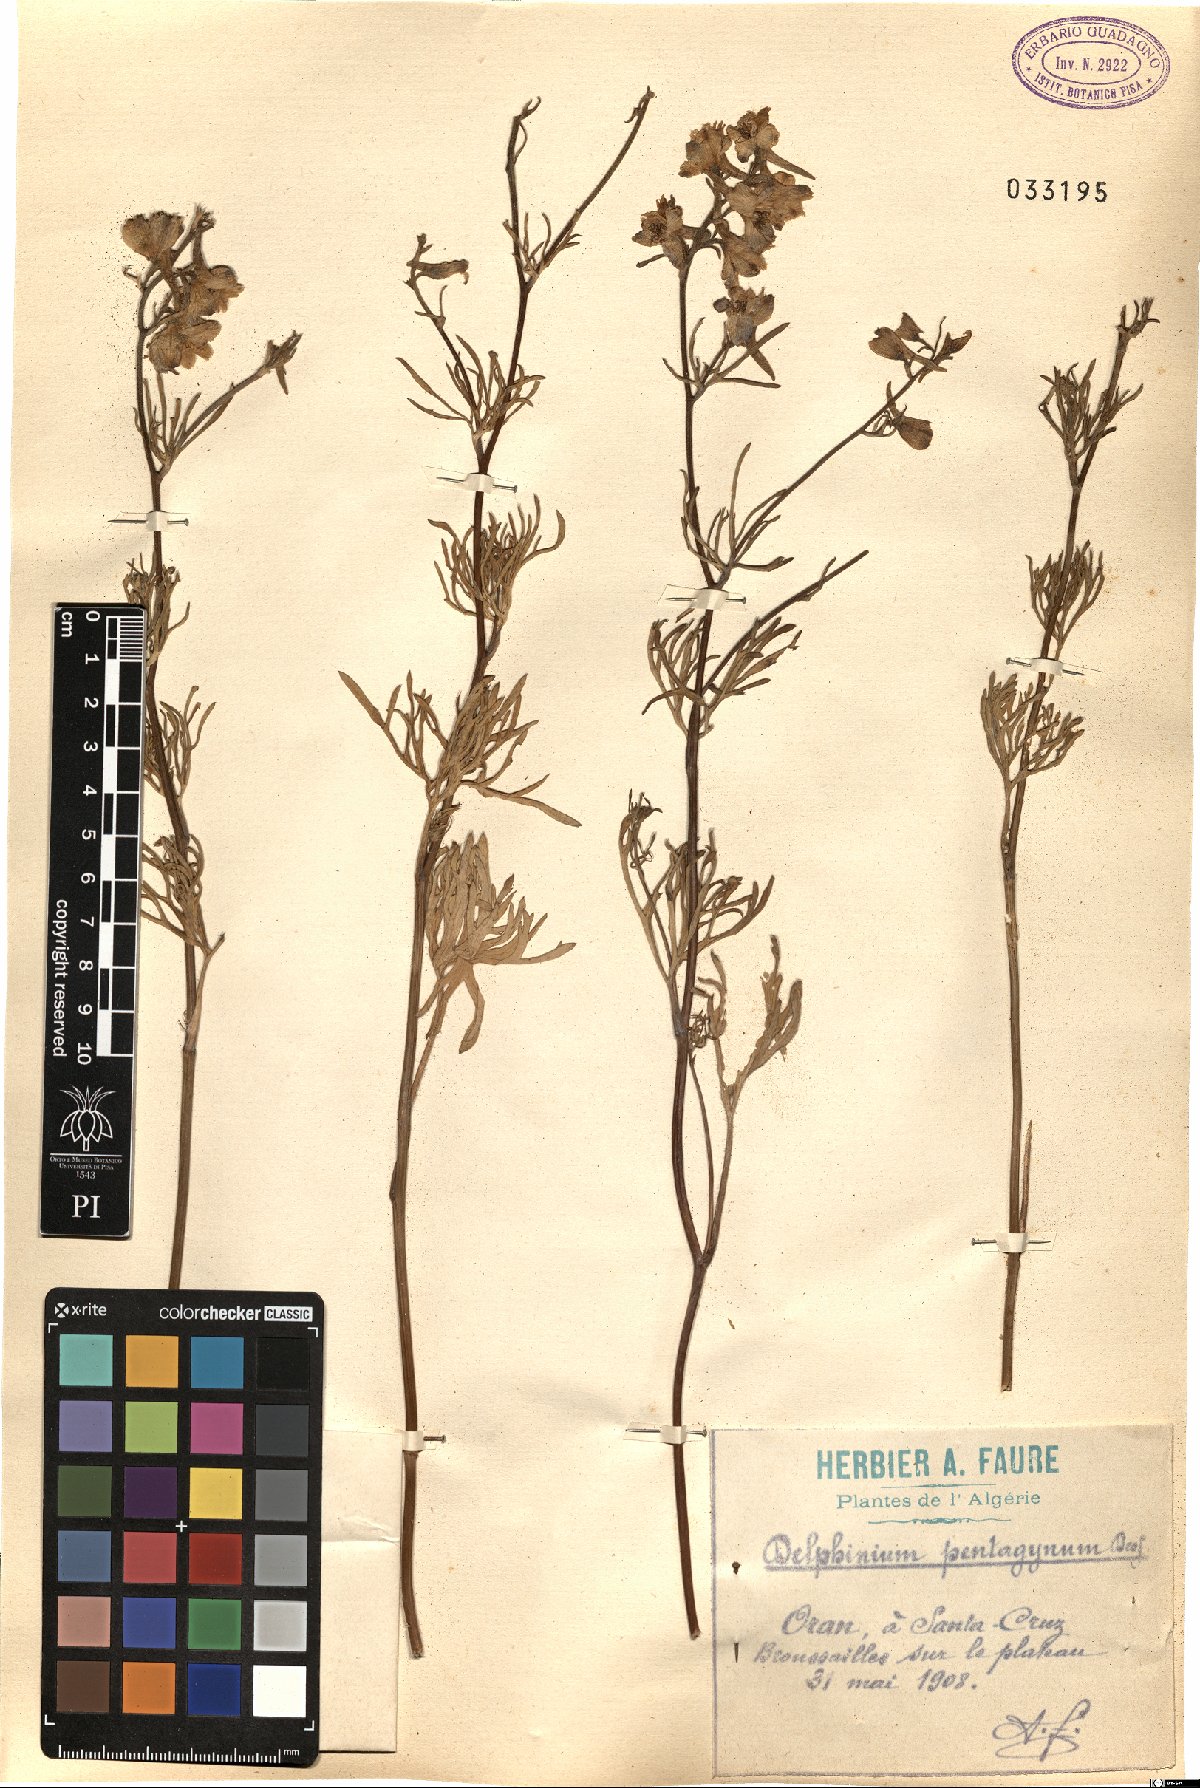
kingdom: Plantae
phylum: Tracheophyta
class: Magnoliopsida
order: Ranunculales
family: Ranunculaceae
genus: Delphinium
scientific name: Delphinium pentagynum
